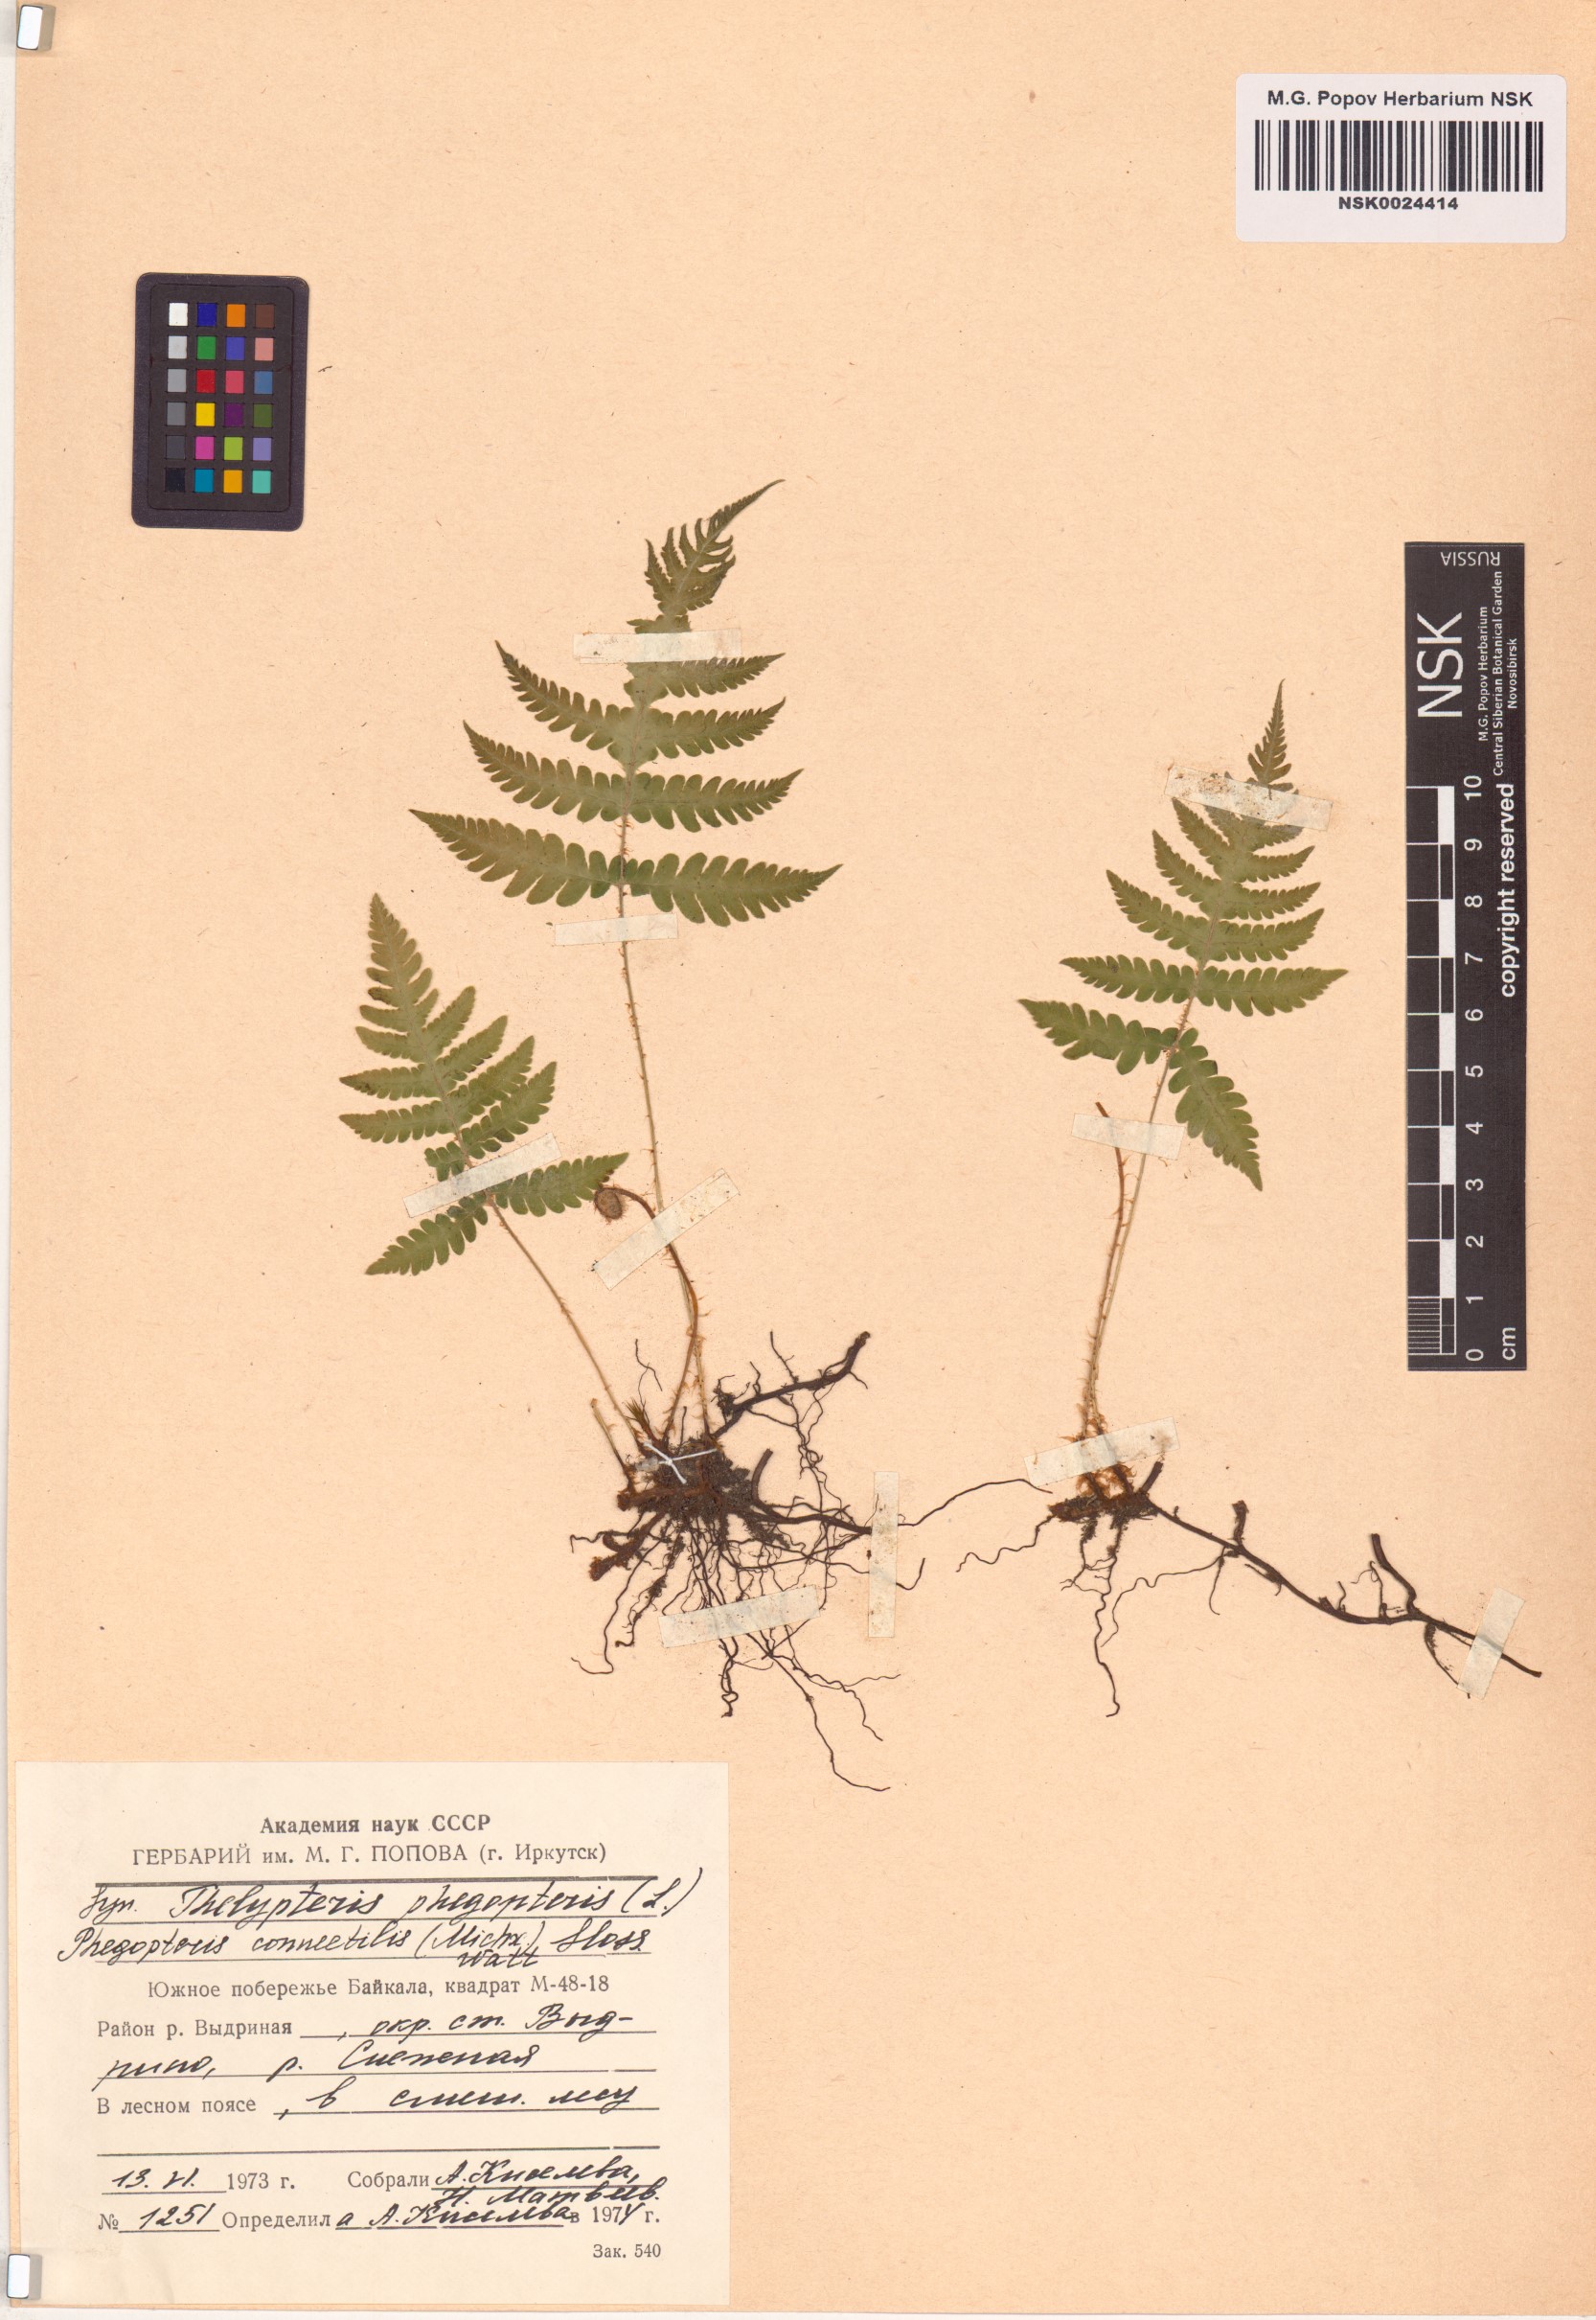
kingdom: Plantae
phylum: Tracheophyta
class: Polypodiopsida
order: Polypodiales
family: Thelypteridaceae
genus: Phegopteris
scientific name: Phegopteris connectilis
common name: Beech fern
